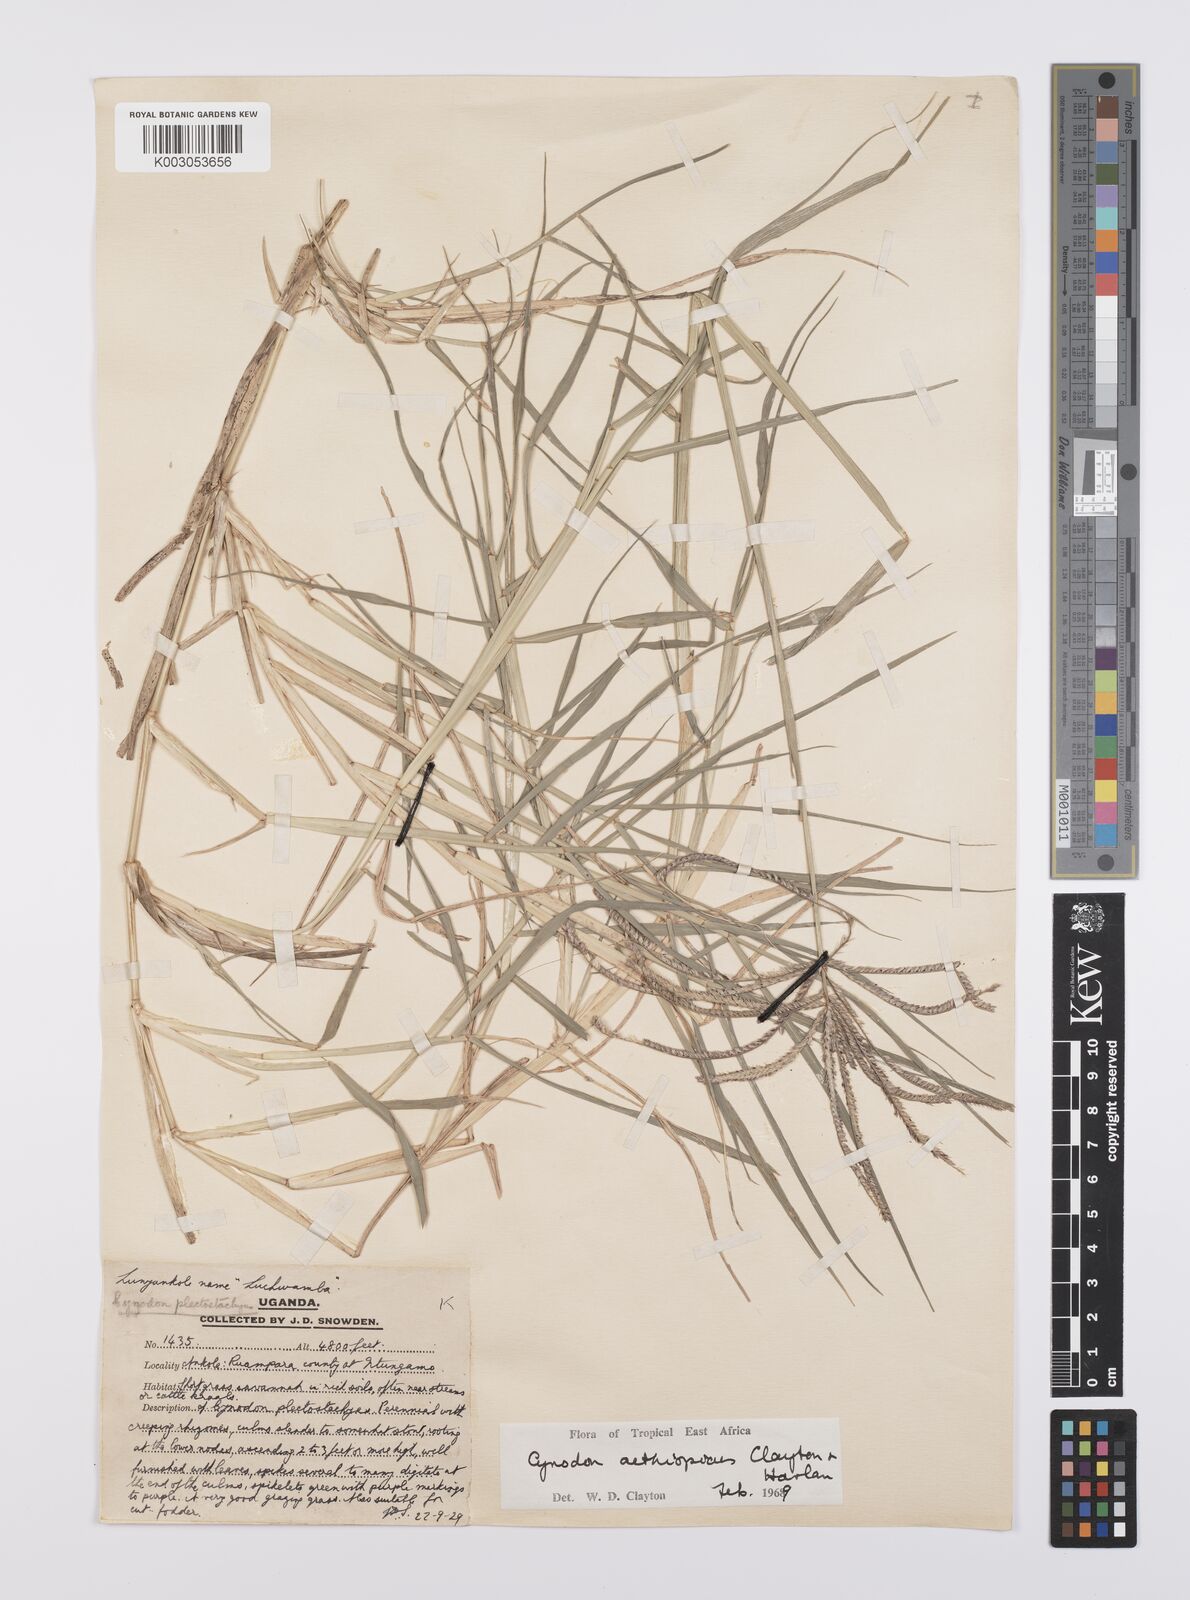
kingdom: Plantae
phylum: Tracheophyta
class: Liliopsida
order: Poales
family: Poaceae
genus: Cynodon
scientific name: Cynodon aethiopicus
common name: Ethiopian dogstooth grass
